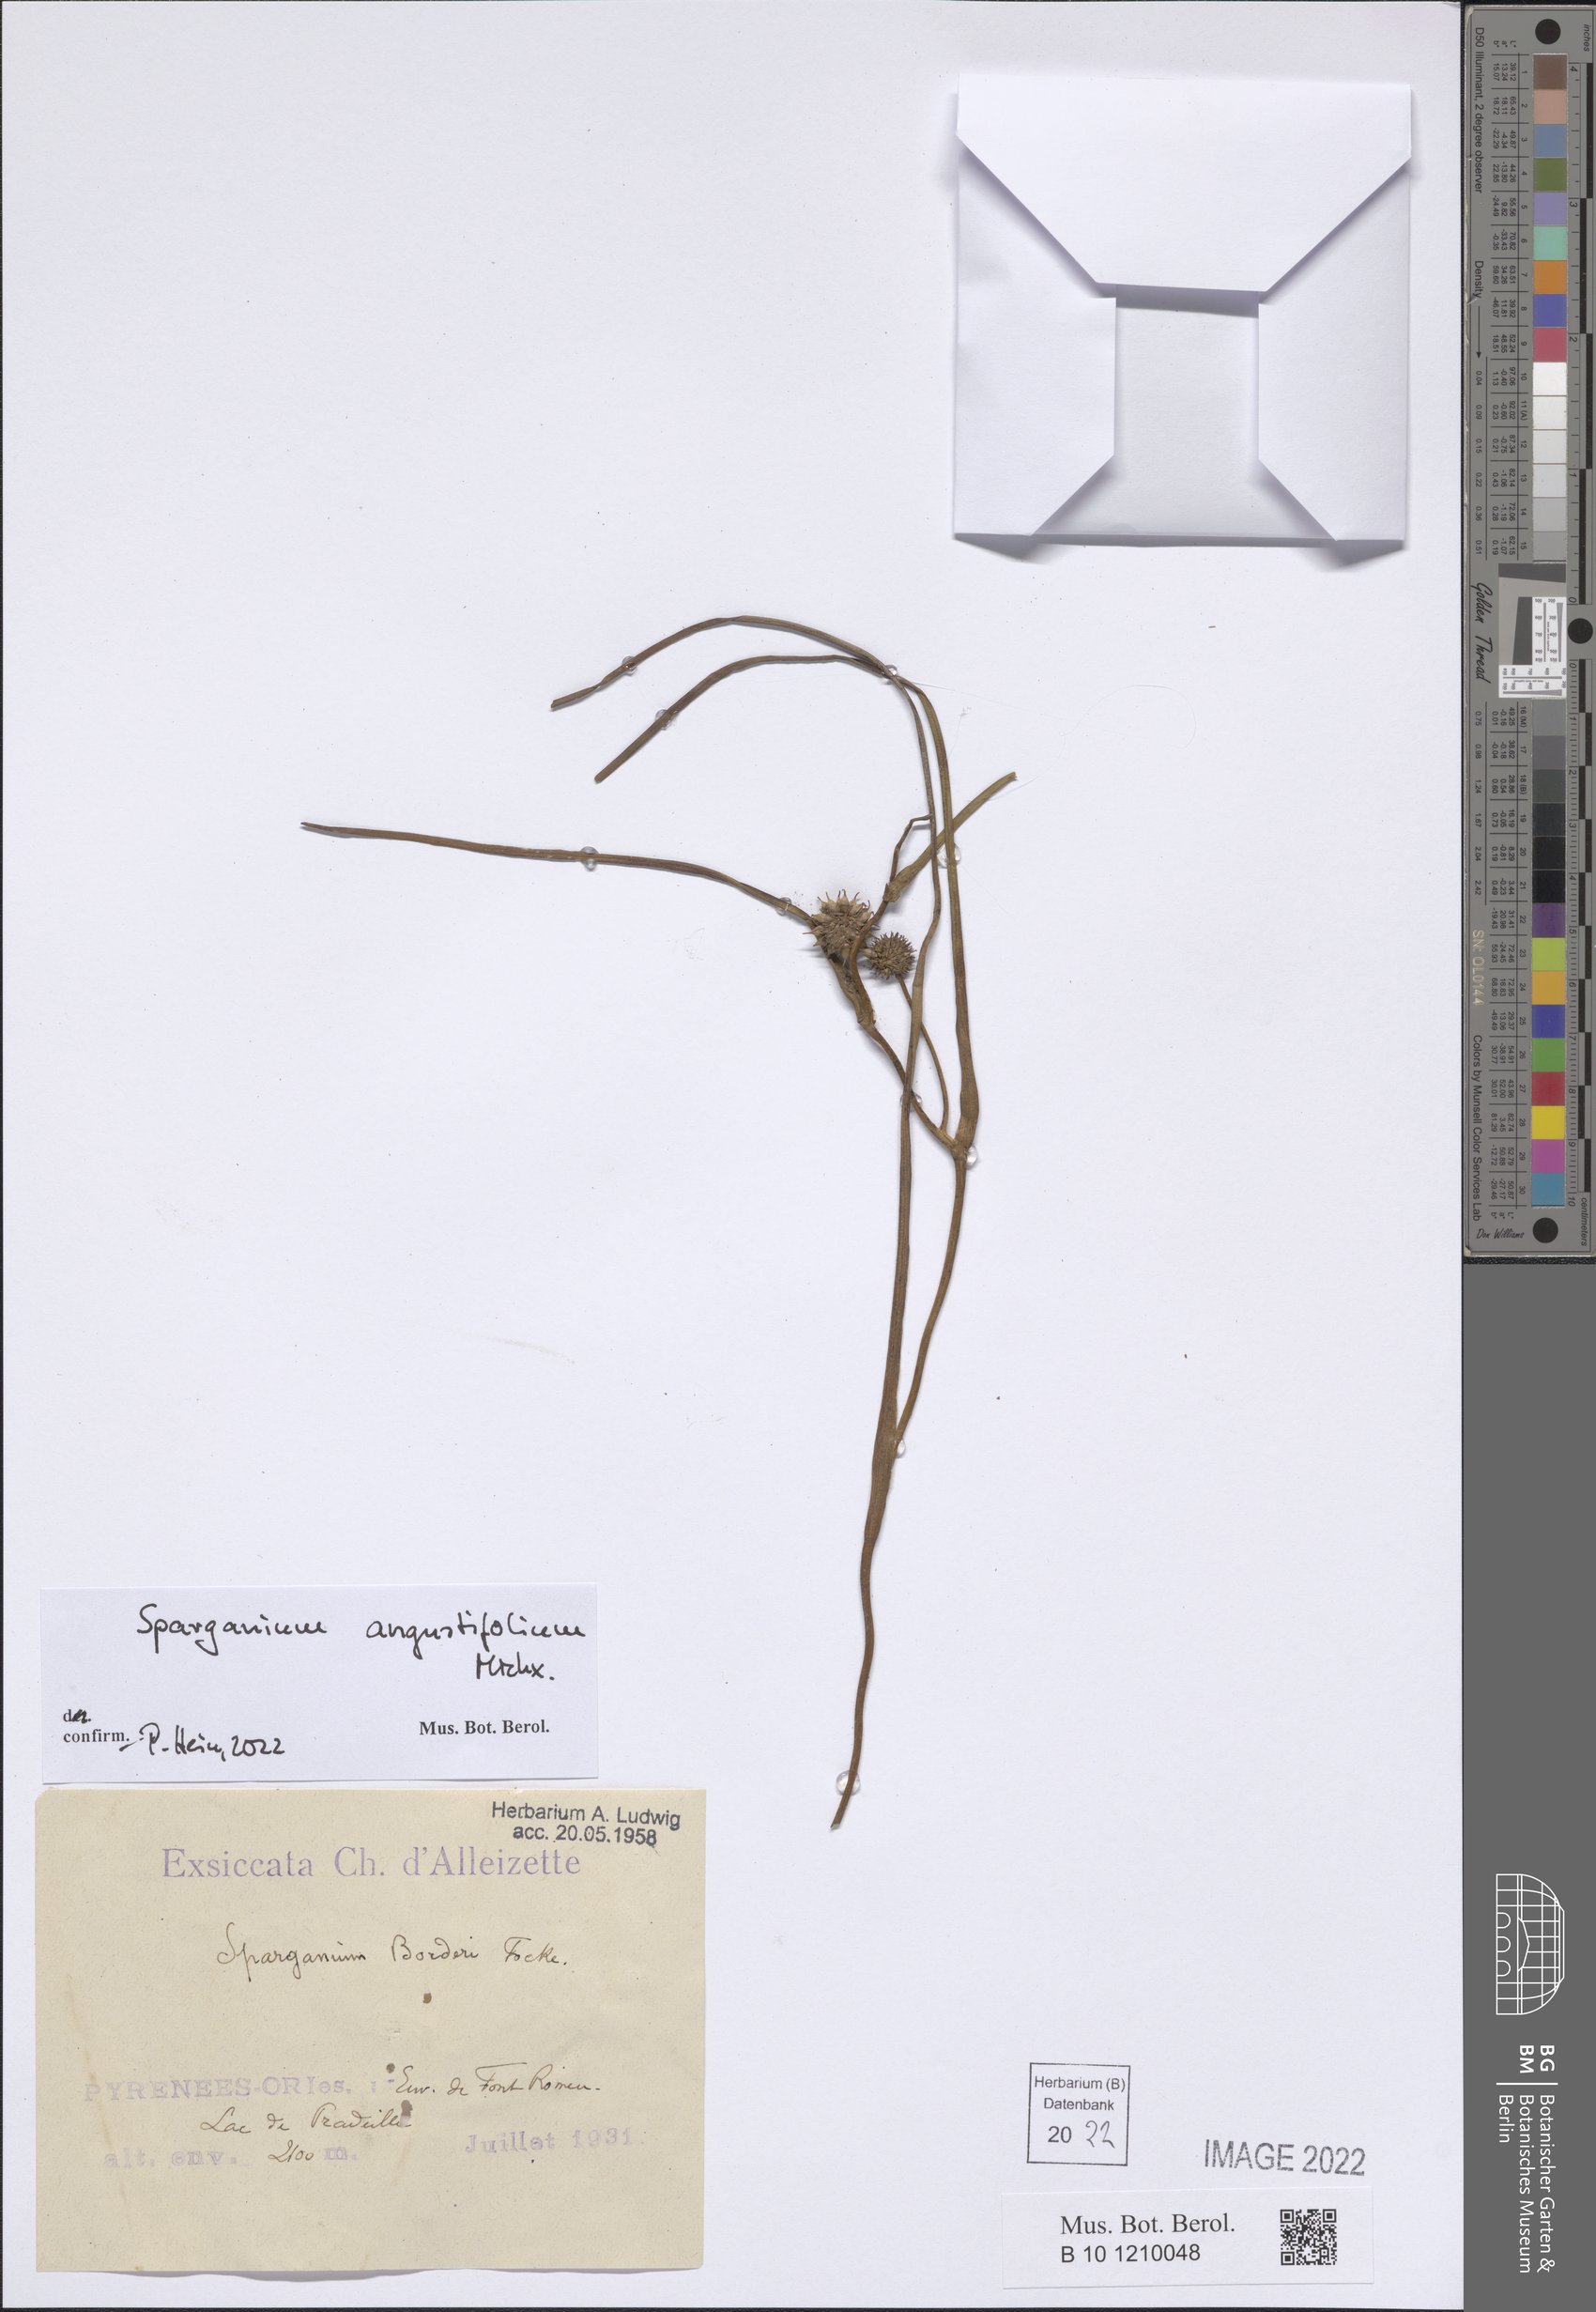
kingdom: Plantae
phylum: Tracheophyta
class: Liliopsida
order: Poales
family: Typhaceae
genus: Sparganium
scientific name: Sparganium angustifolium
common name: Floating bur-reed
